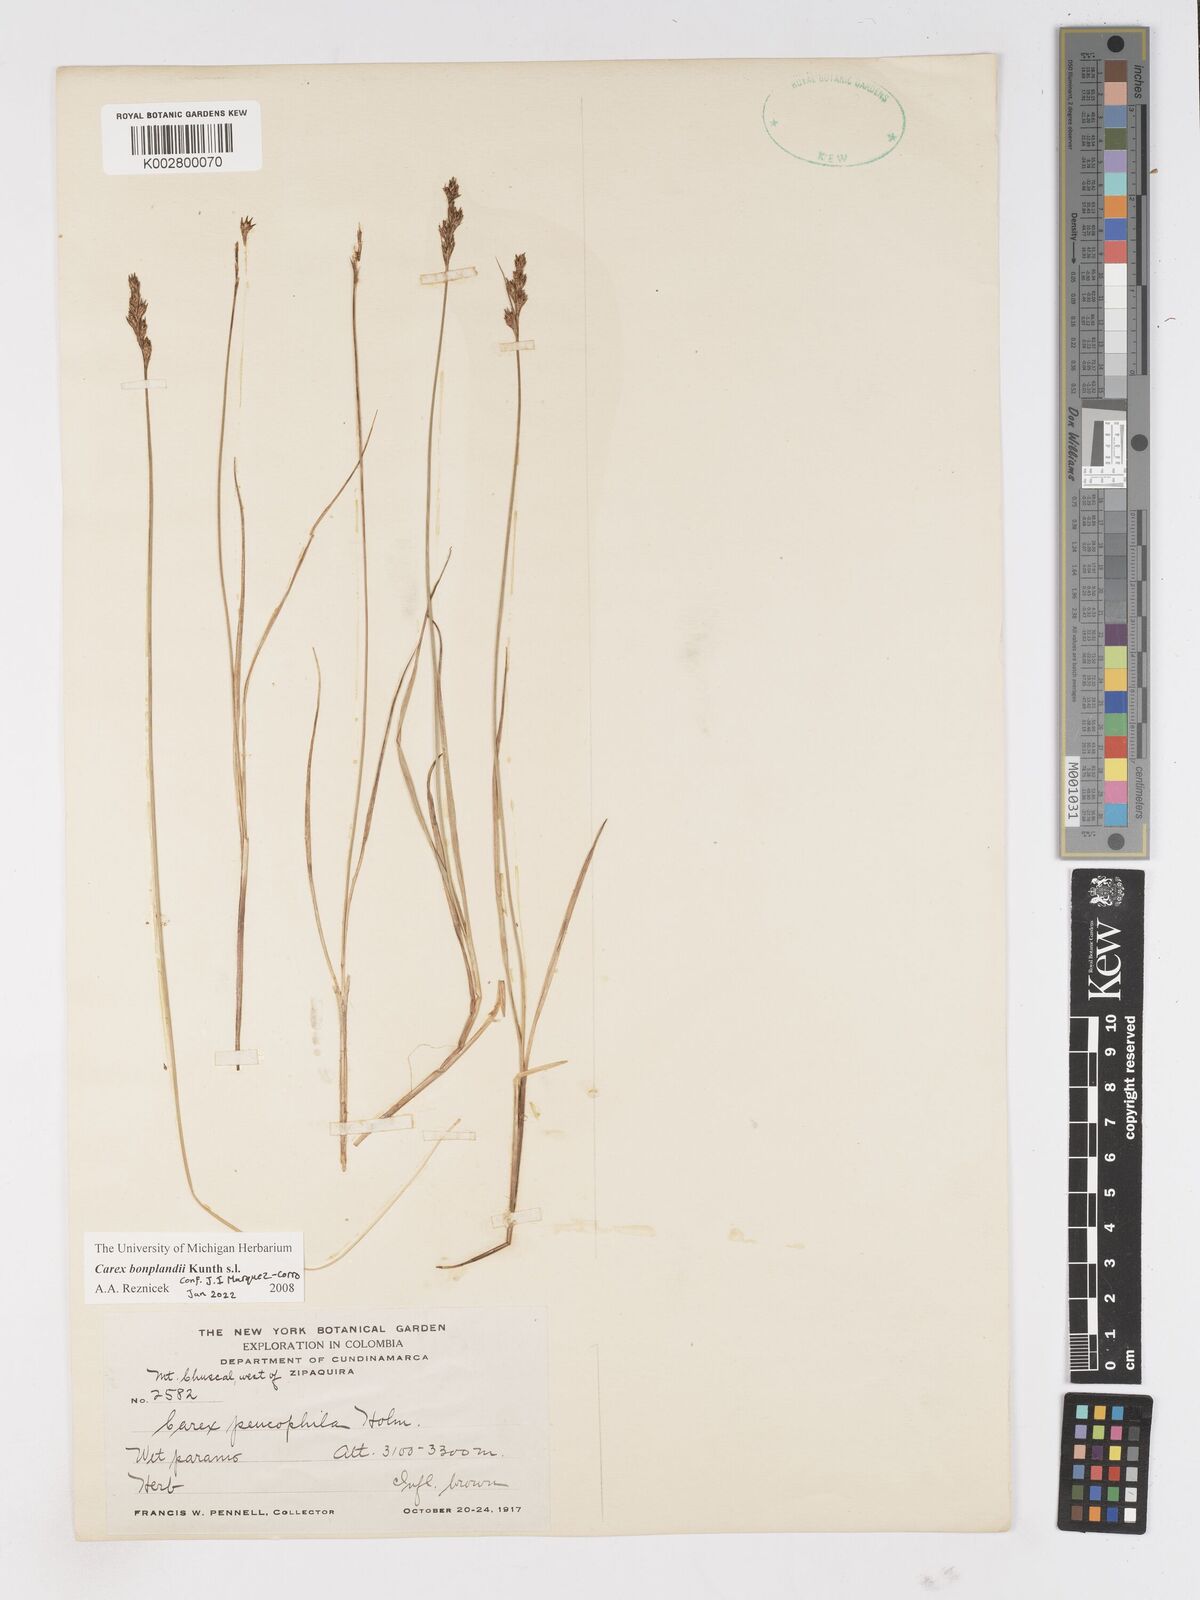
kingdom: Plantae
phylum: Tracheophyta
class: Liliopsida
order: Poales
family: Cyperaceae
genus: Carex
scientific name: Carex bonplandii
